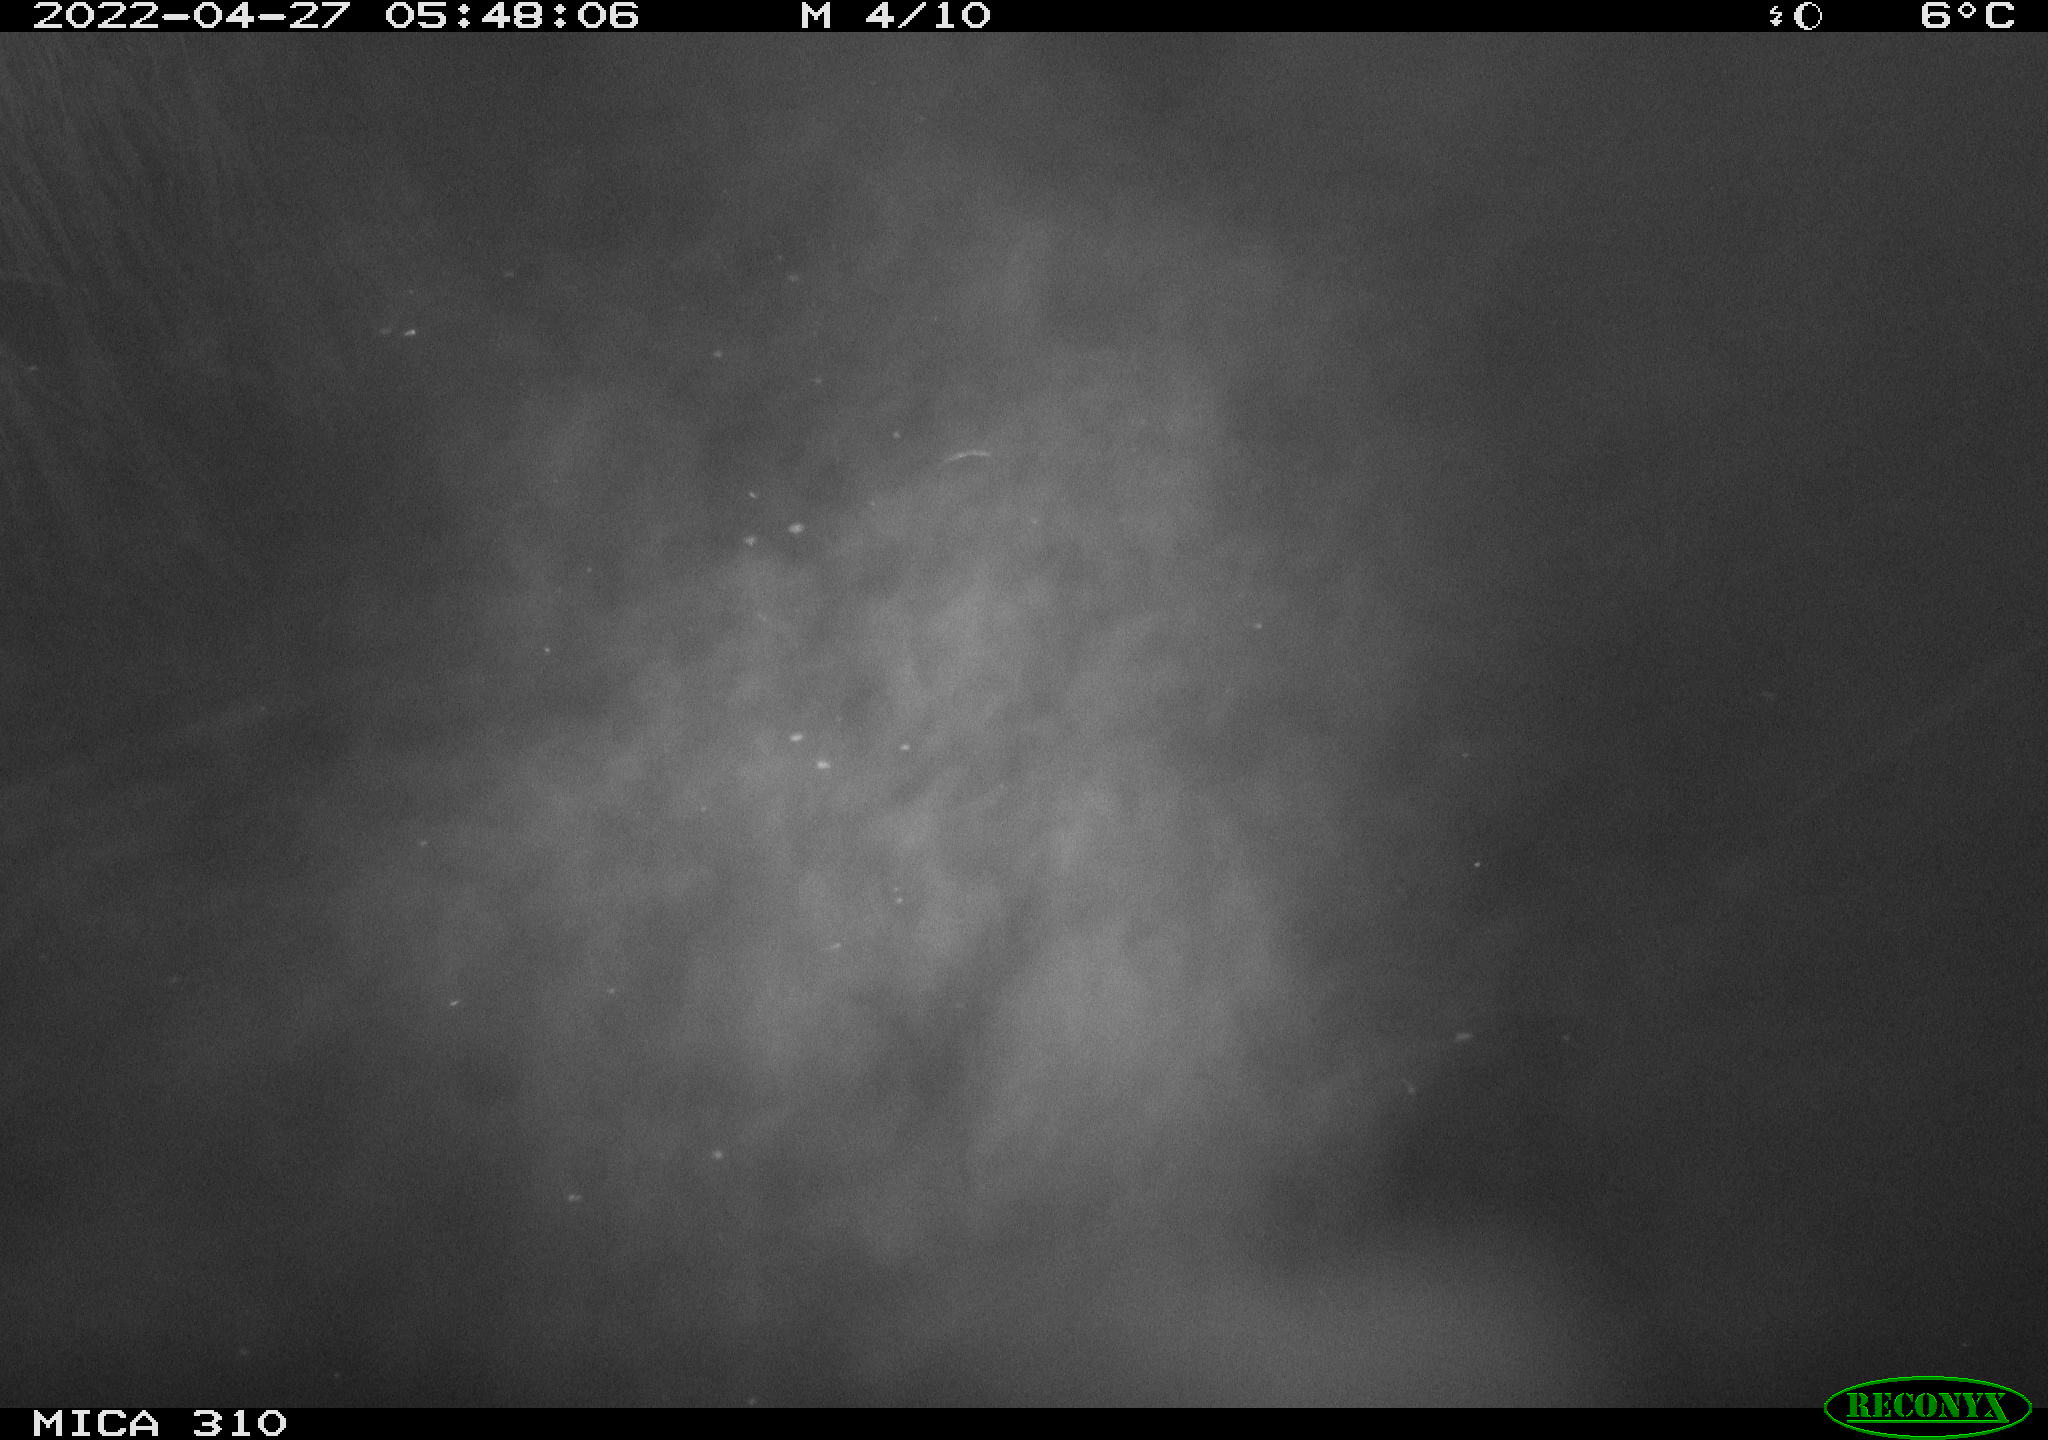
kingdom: Animalia
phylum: Chordata
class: Aves
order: Anseriformes
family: Anatidae
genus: Mareca
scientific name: Mareca strepera
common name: Gadwall
